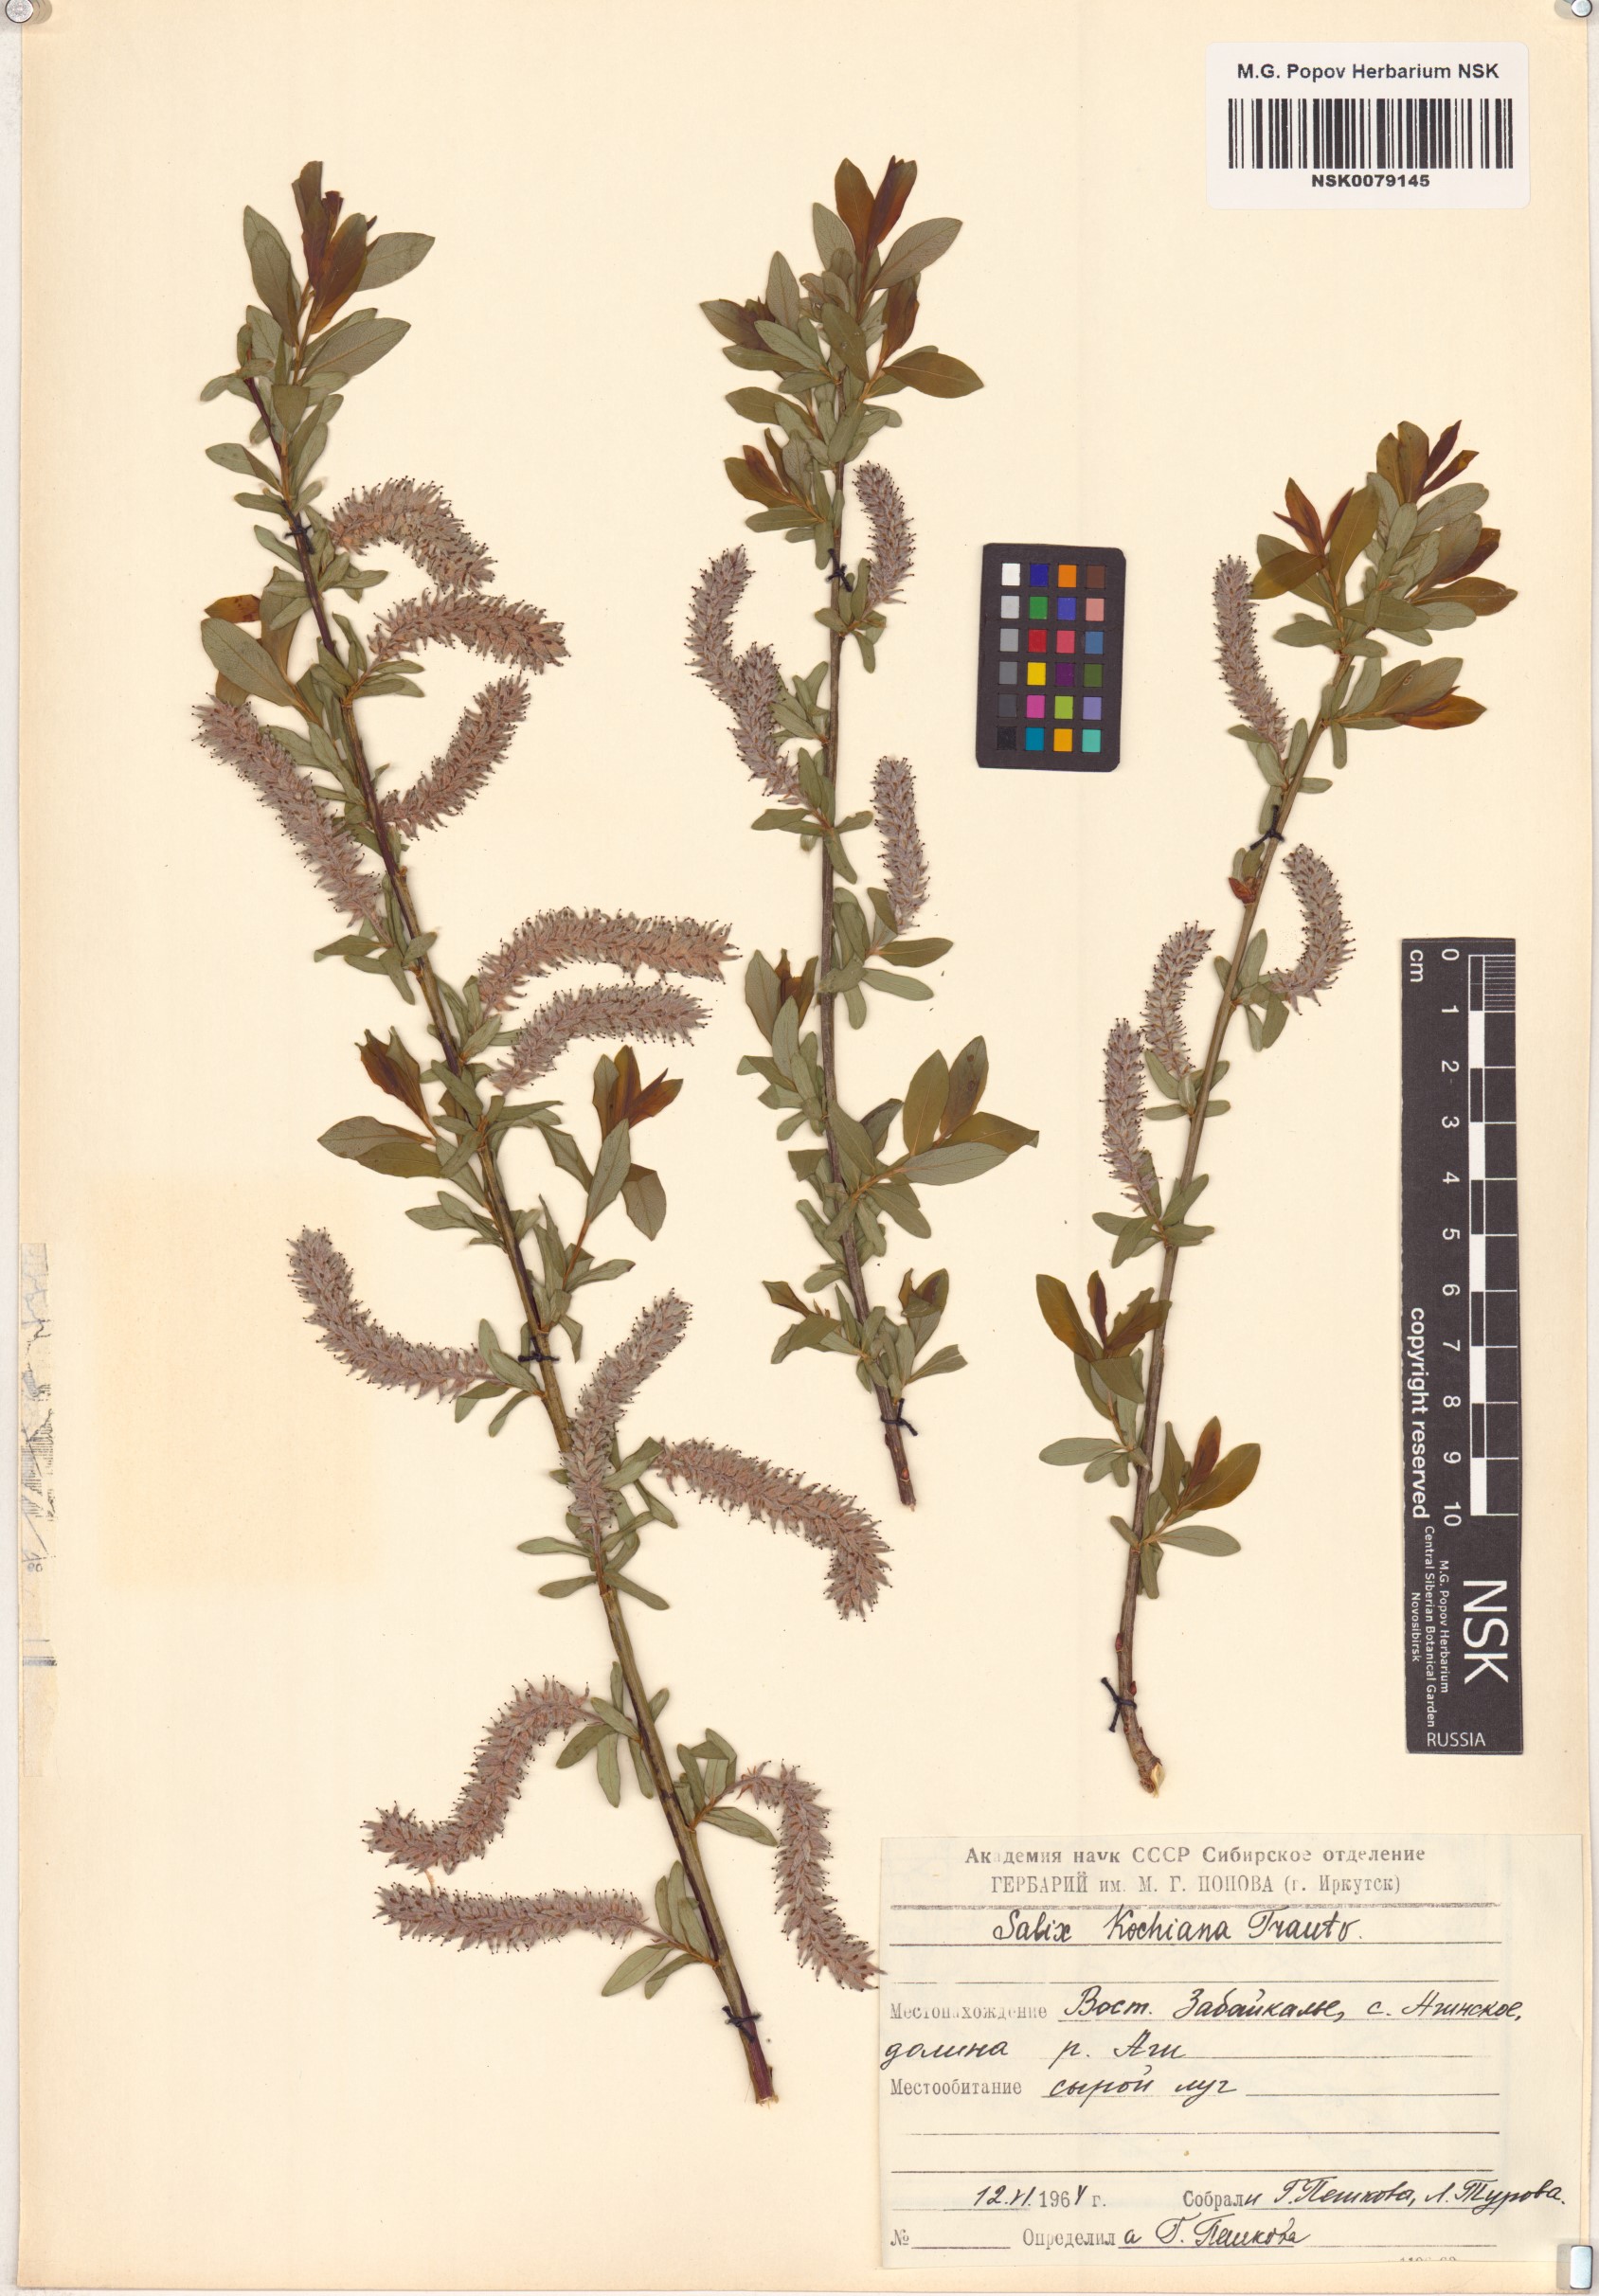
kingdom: Plantae
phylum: Tracheophyta
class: Magnoliopsida
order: Malpighiales
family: Salicaceae
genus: Salix
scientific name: Salix kochiana
